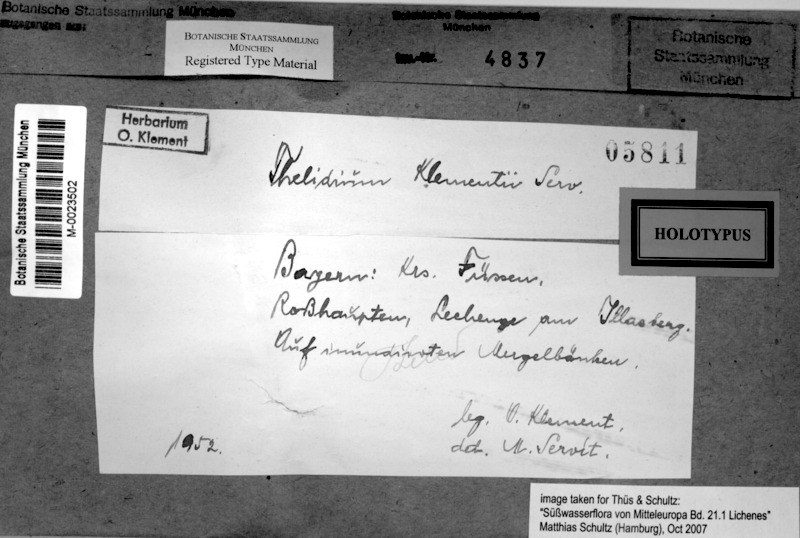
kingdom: Fungi
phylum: Ascomycota
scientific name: Ascomycota
